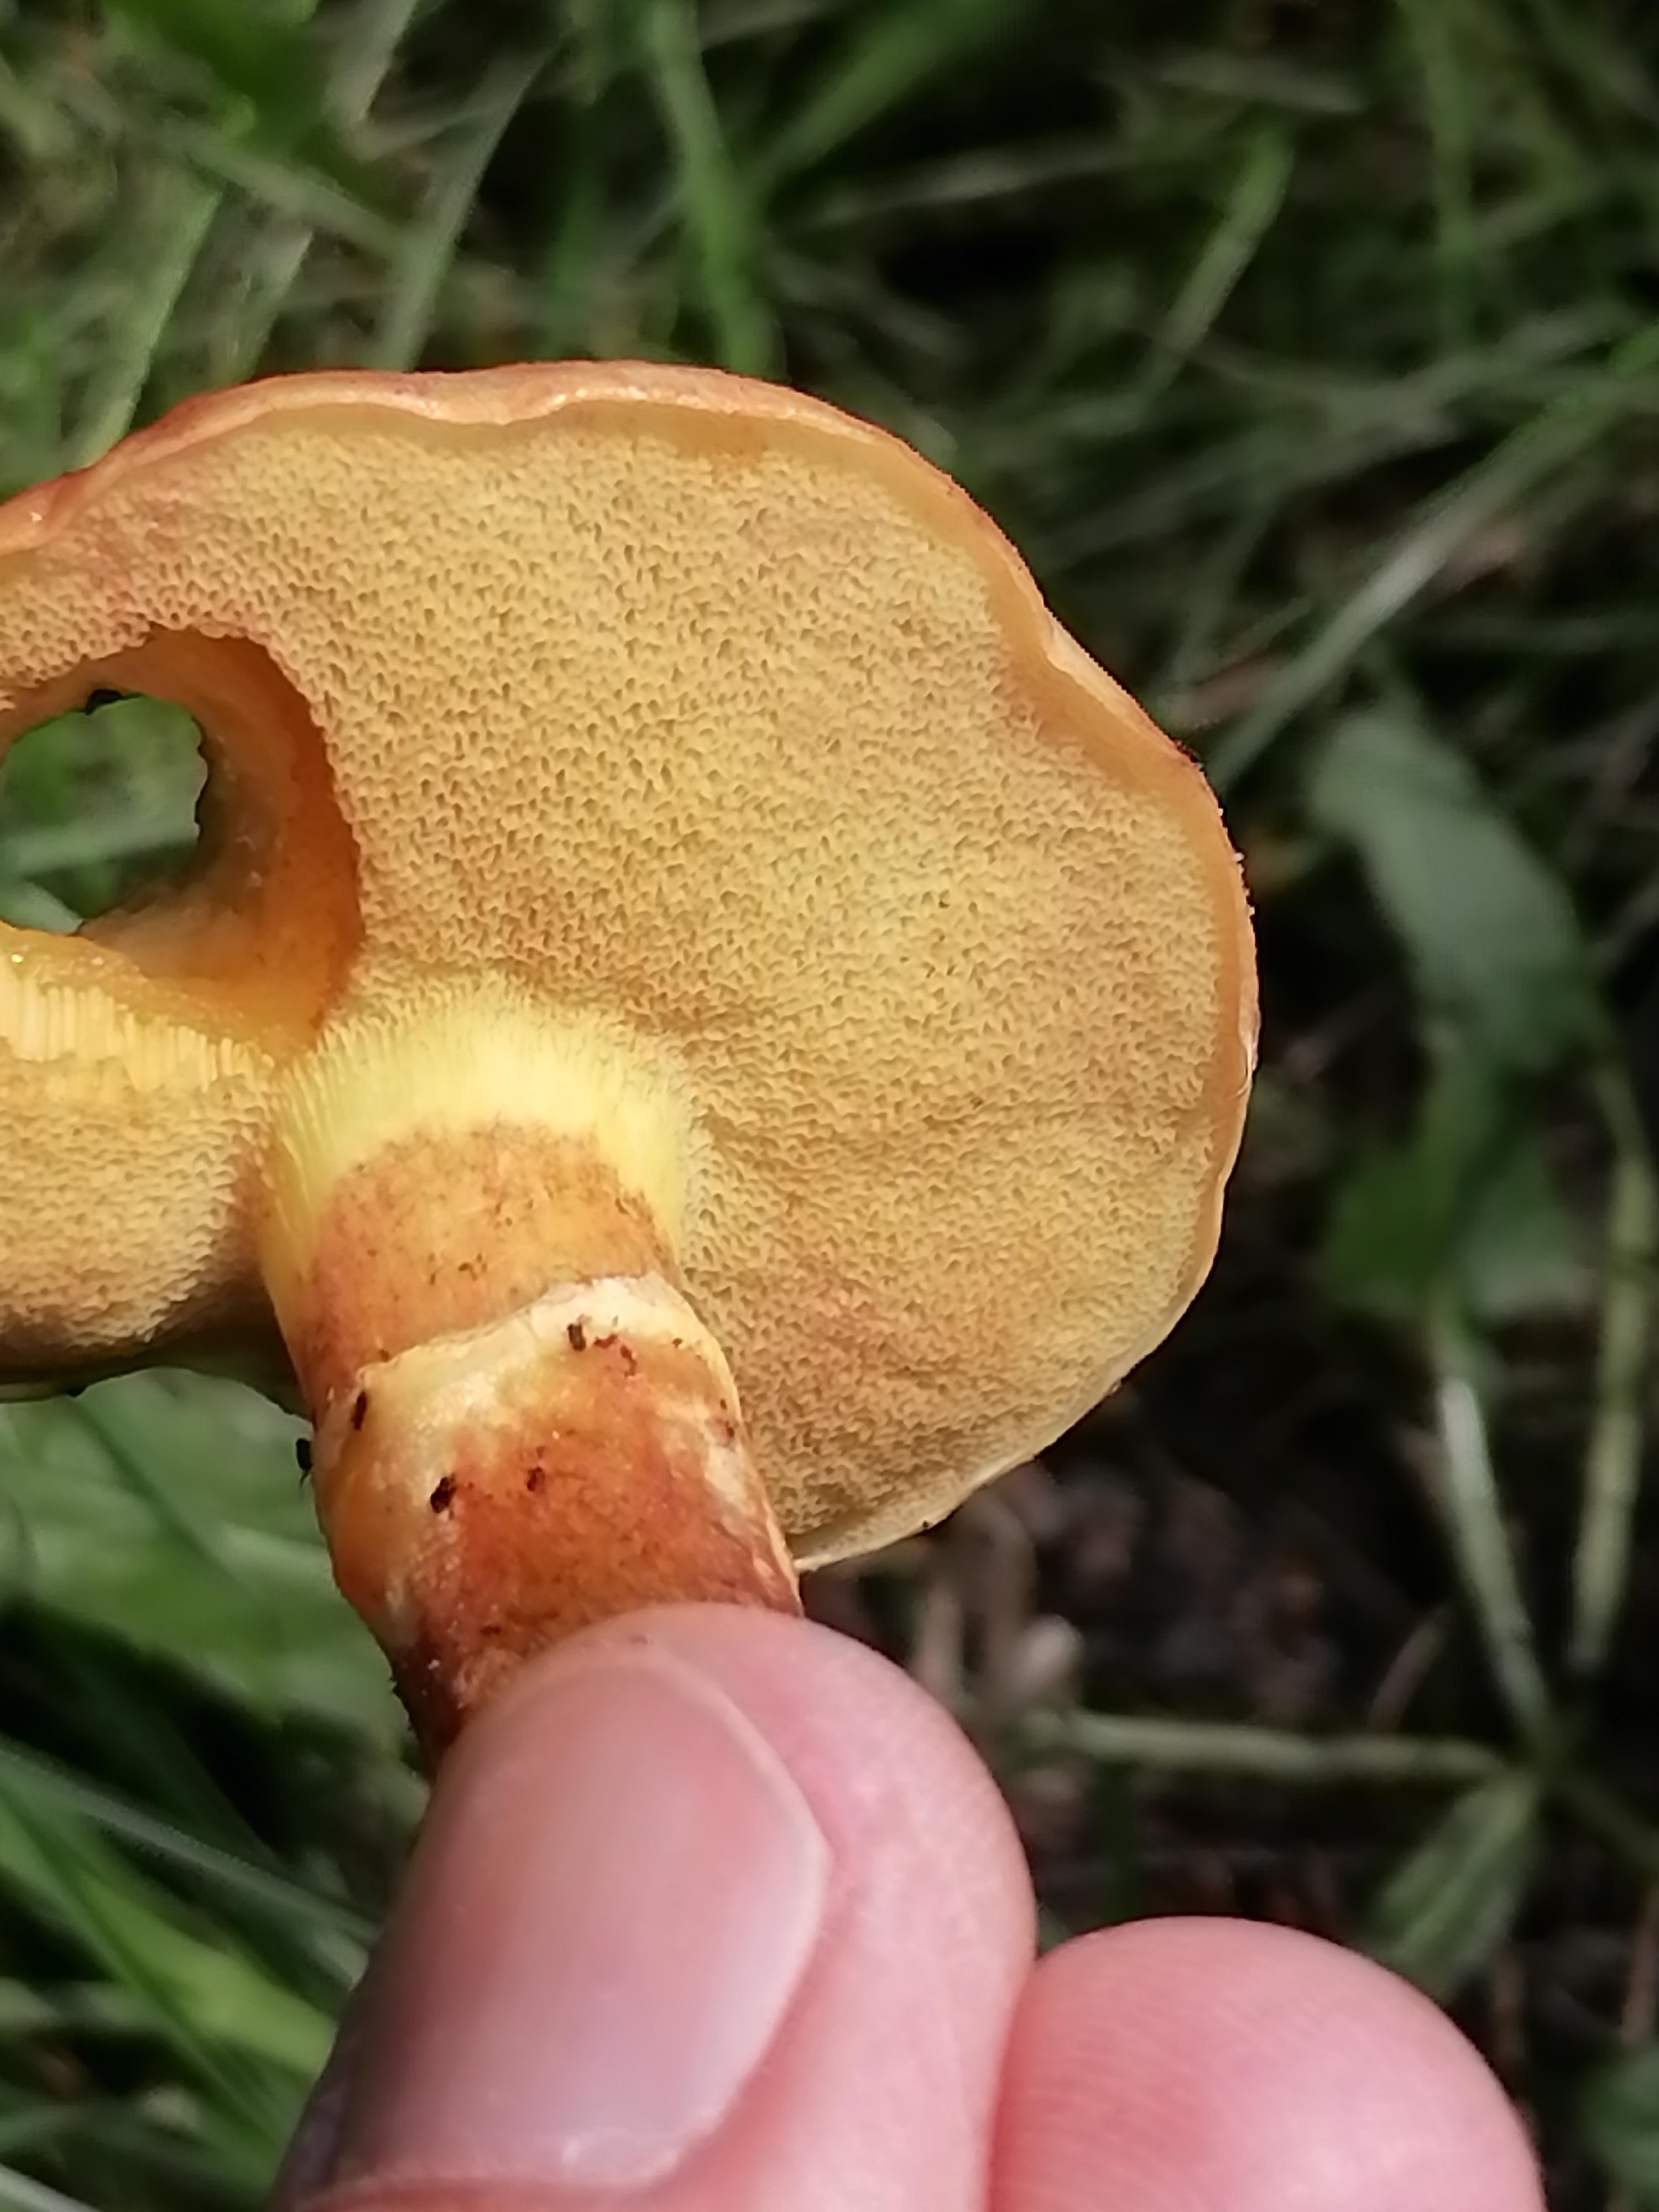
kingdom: Fungi
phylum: Basidiomycota
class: Agaricomycetes
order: Boletales
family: Suillaceae
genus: Suillus
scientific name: Suillus grevillei
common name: lærke-slimrørhat
